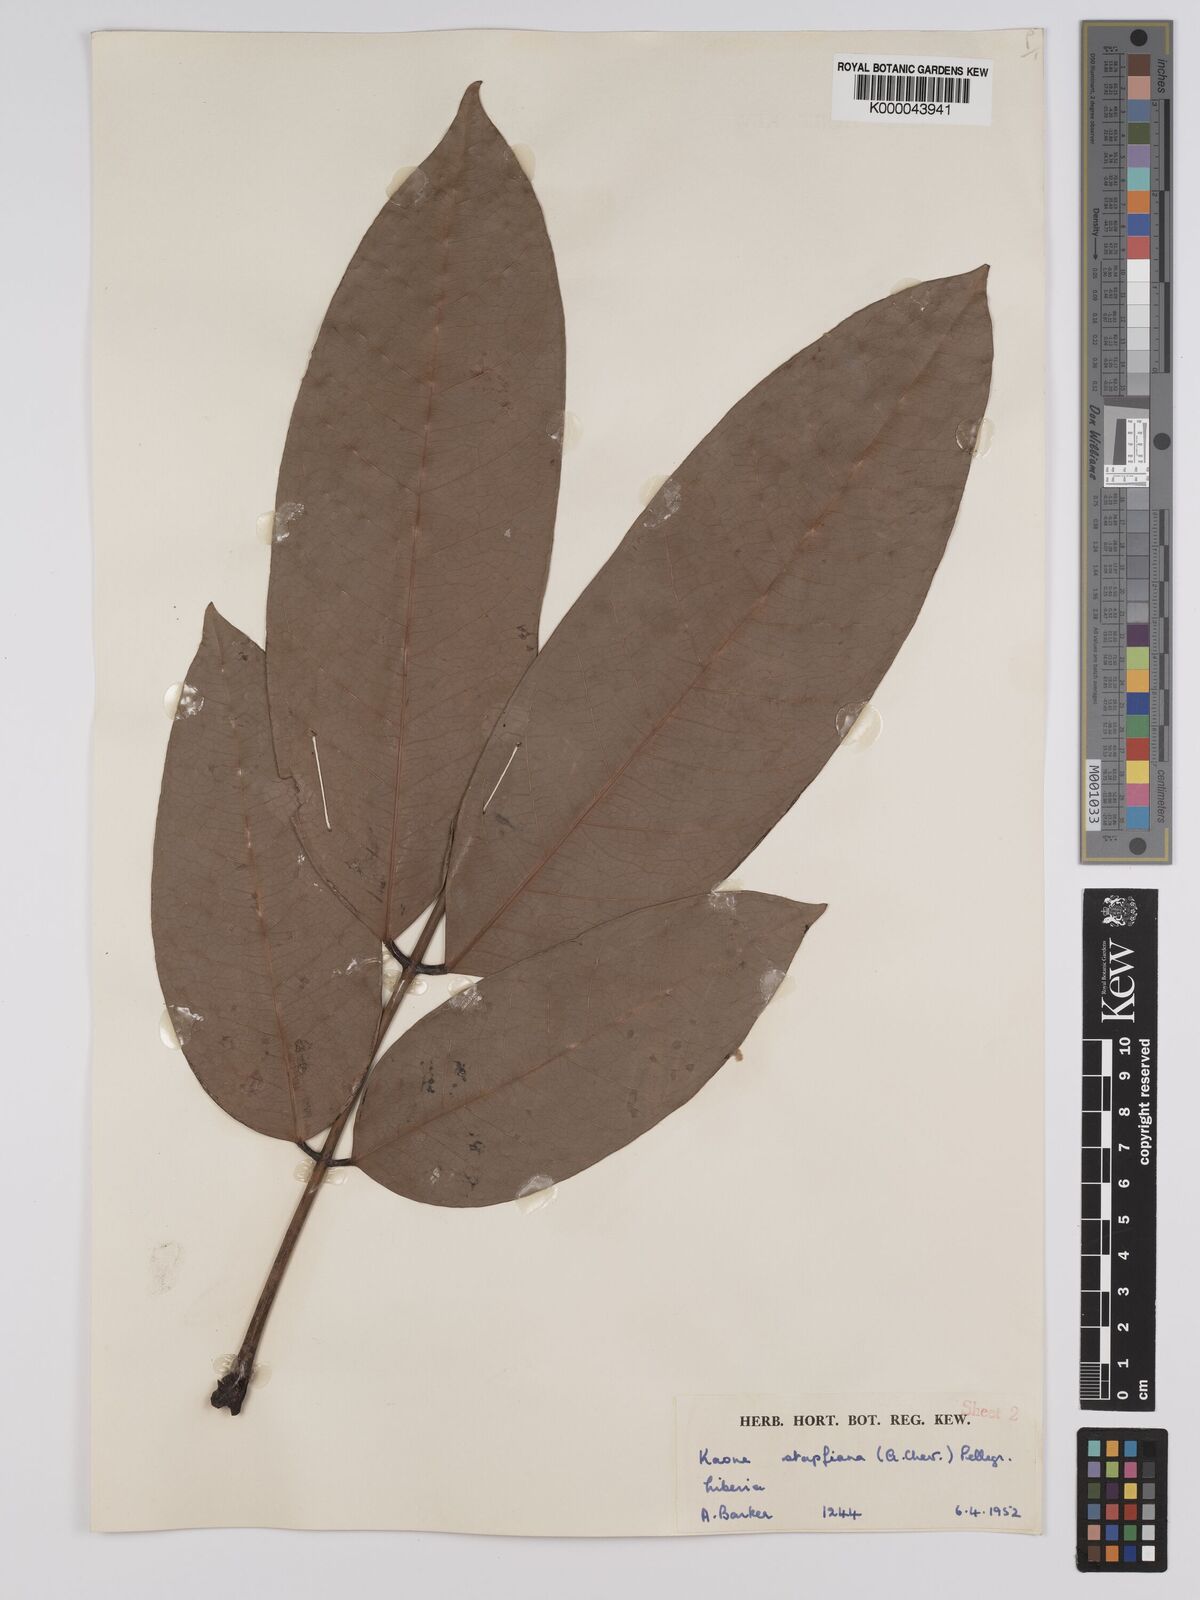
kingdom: Plantae
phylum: Tracheophyta
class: Magnoliopsida
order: Fabales
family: Fabaceae
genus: Stachyothyrsus
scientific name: Stachyothyrsus
